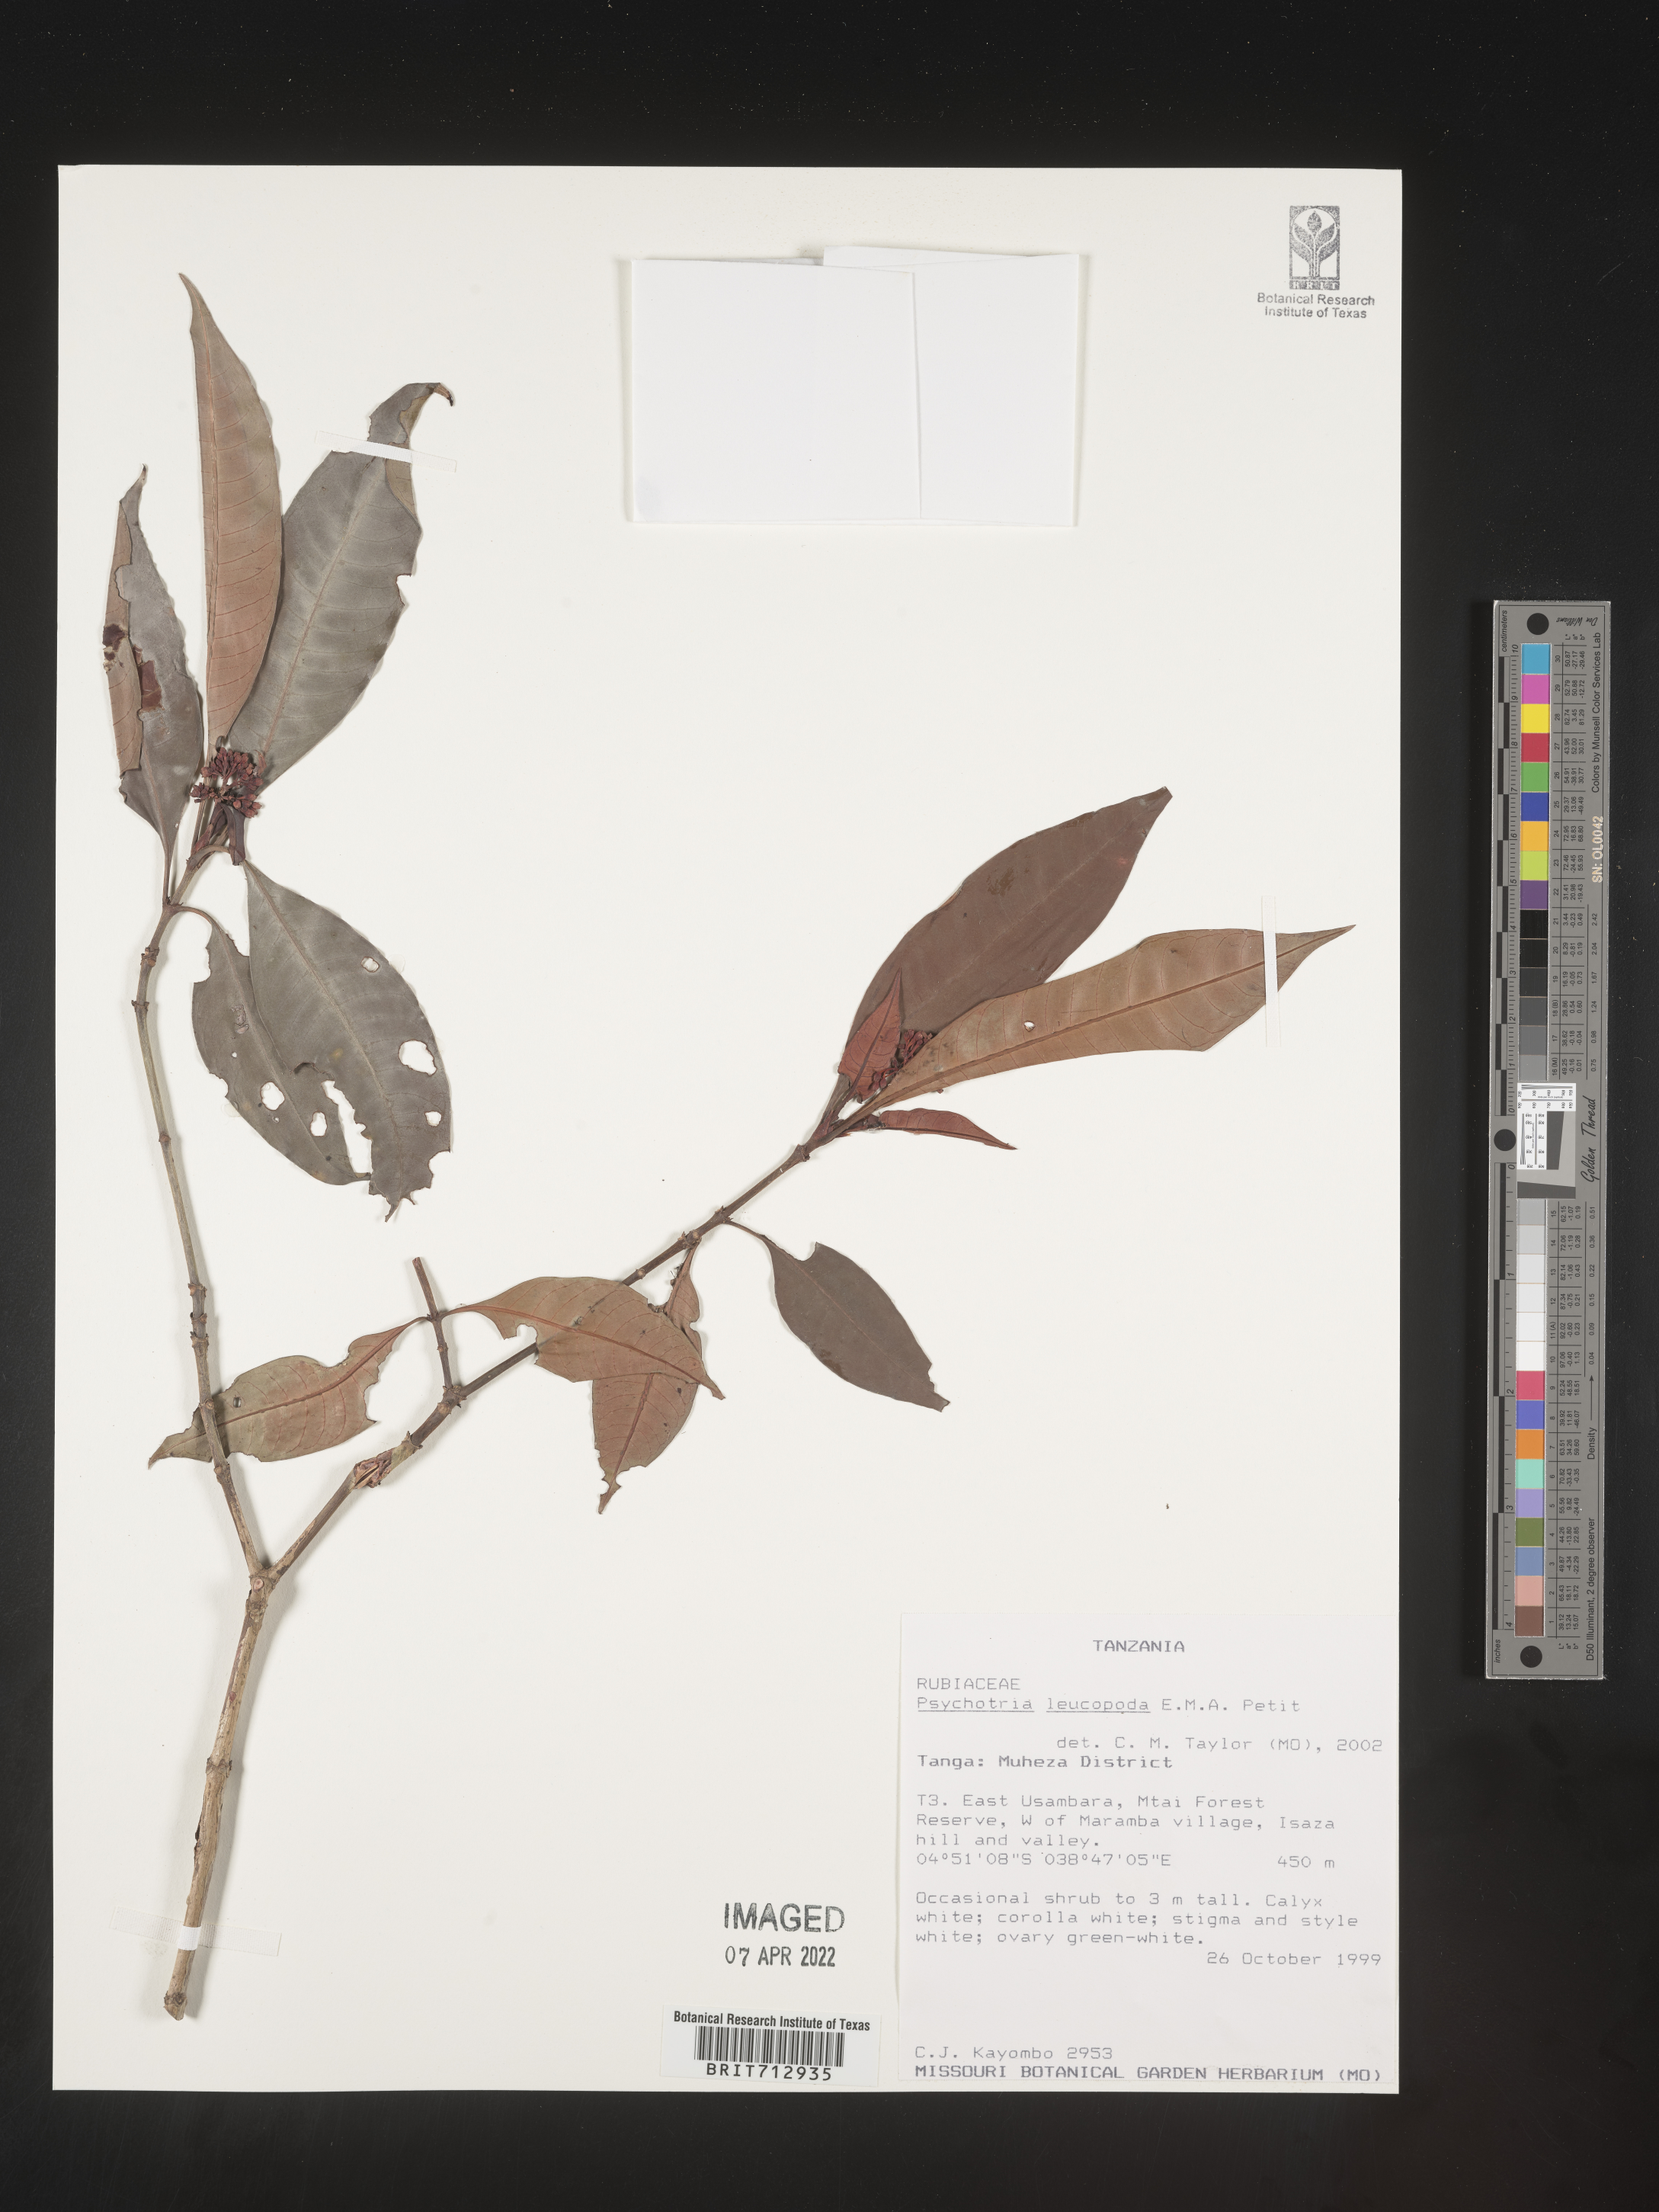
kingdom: Plantae
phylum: Tracheophyta
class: Magnoliopsida
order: Gentianales
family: Rubiaceae
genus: Psychotria
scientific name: Psychotria
